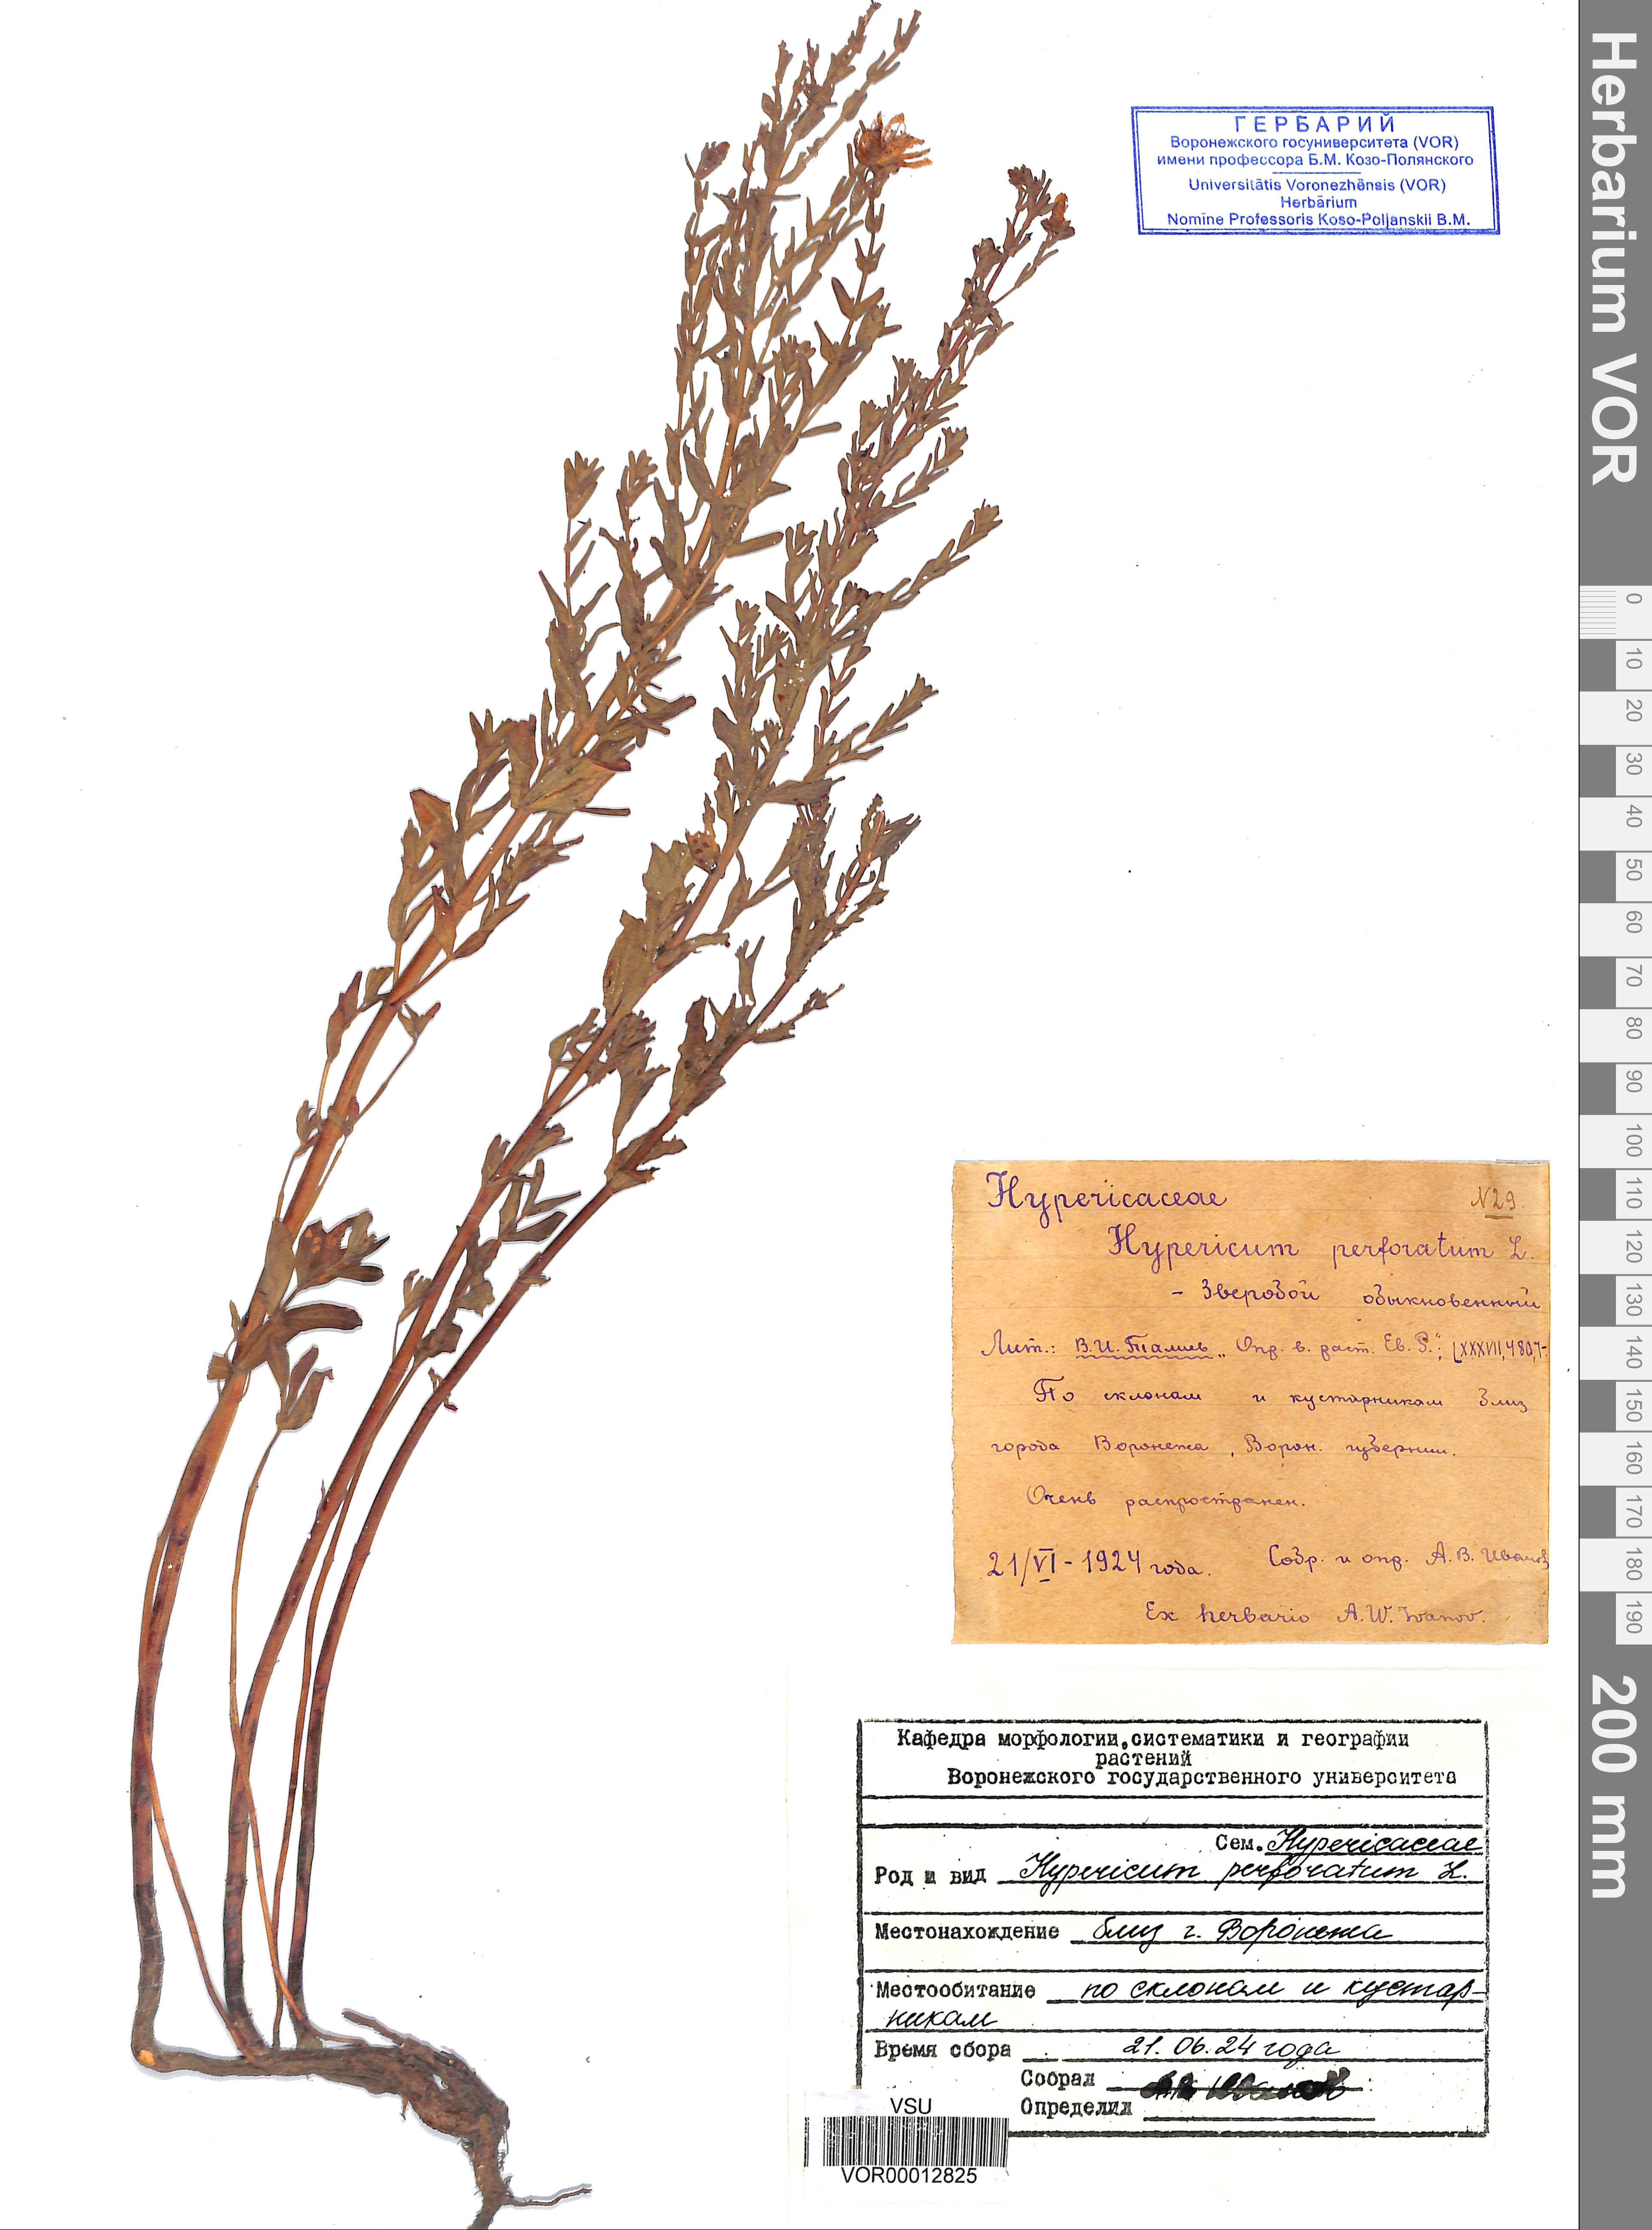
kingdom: Plantae
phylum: Tracheophyta
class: Magnoliopsida
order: Malpighiales
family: Hypericaceae
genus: Hypericum
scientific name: Hypericum perforatum
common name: Common st. johnswort
